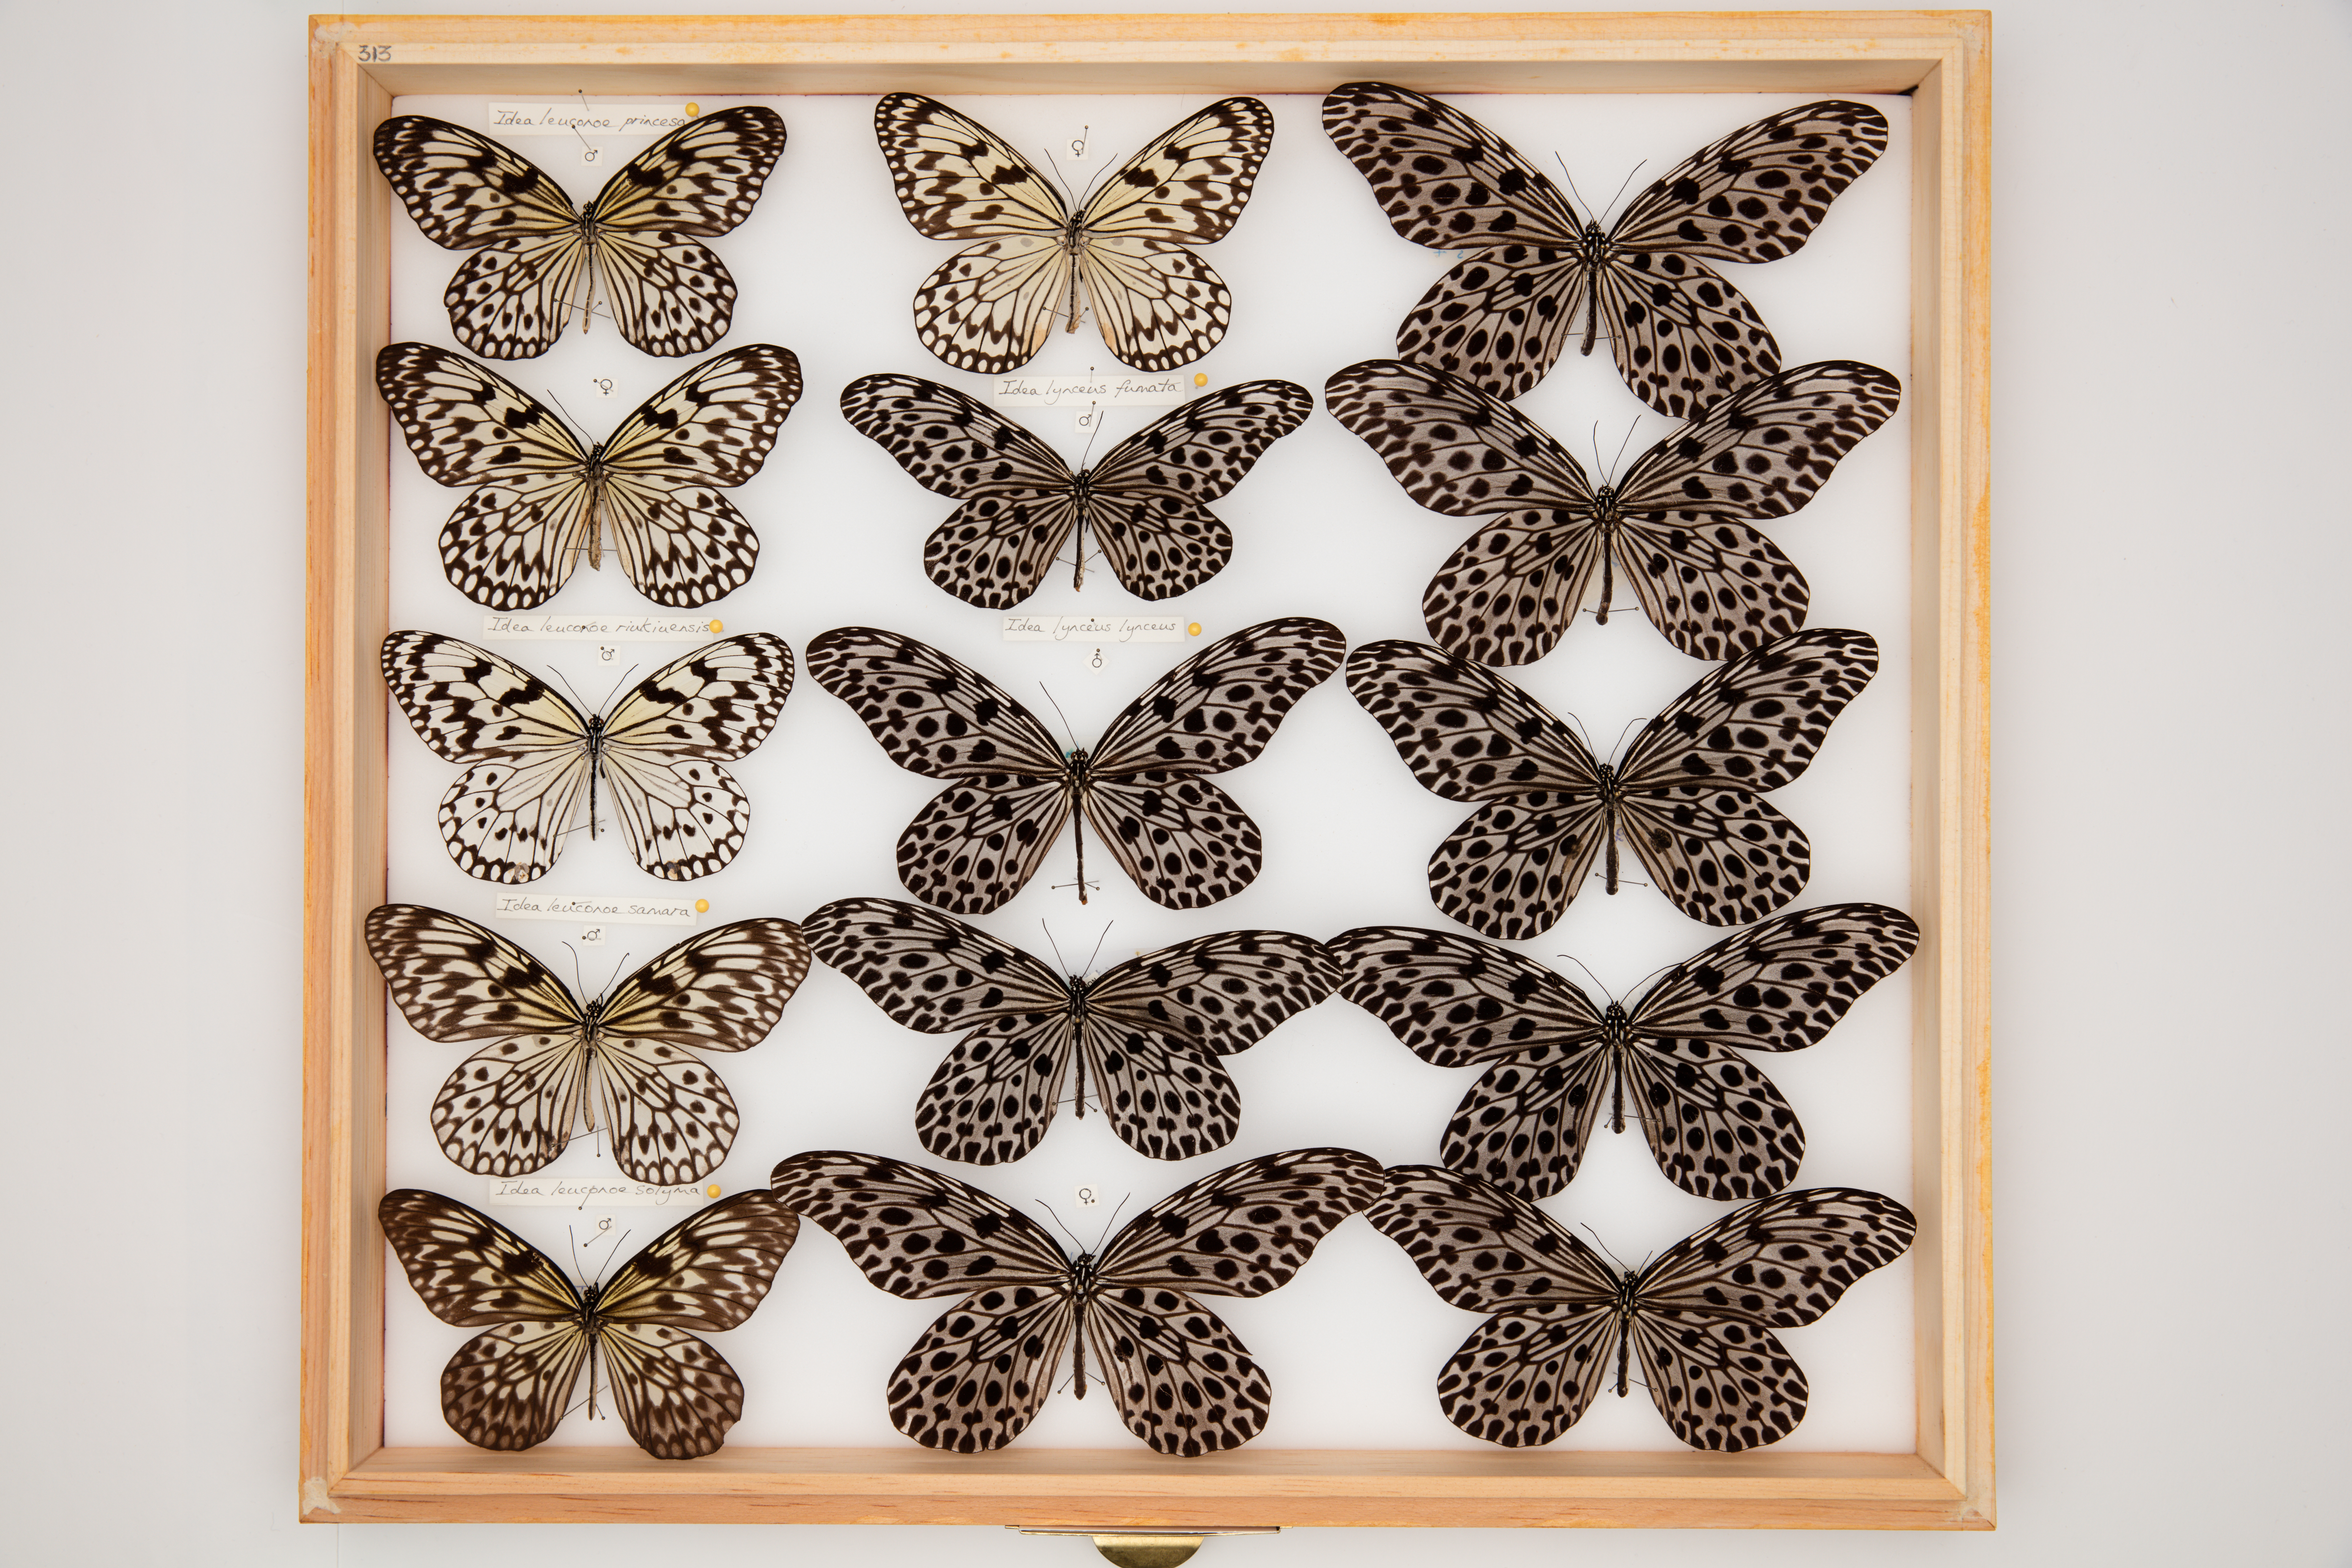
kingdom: Animalia
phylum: Arthropoda
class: Insecta
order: Lepidoptera
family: Nymphalidae
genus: Idea
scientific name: Idea lynceus
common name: Giant tree nymph
